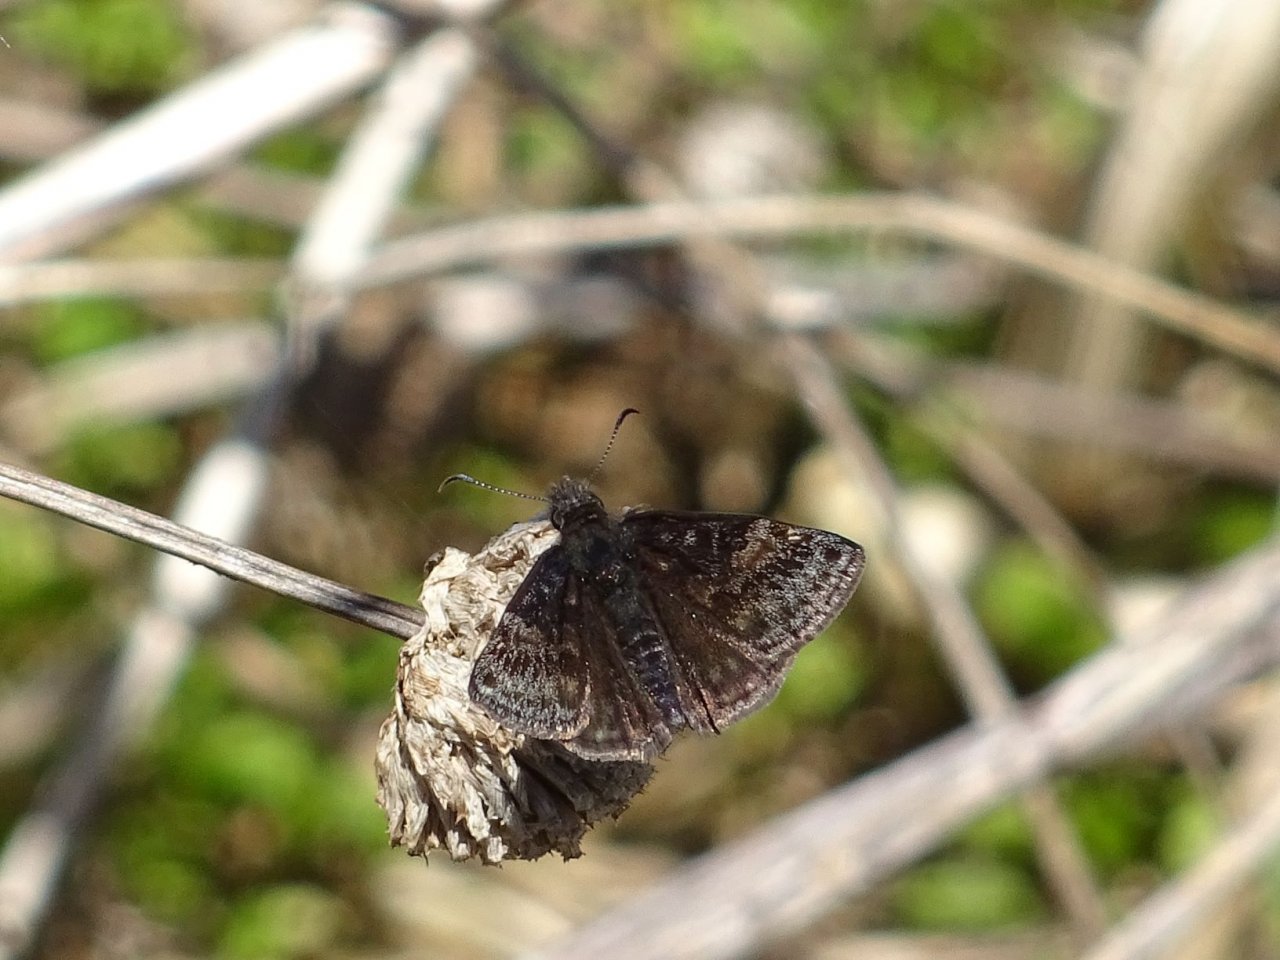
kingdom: Animalia
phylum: Arthropoda
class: Insecta
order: Lepidoptera
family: Hesperiidae
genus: Erynnis
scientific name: Erynnis icelus
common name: Dreamy Duskywing
